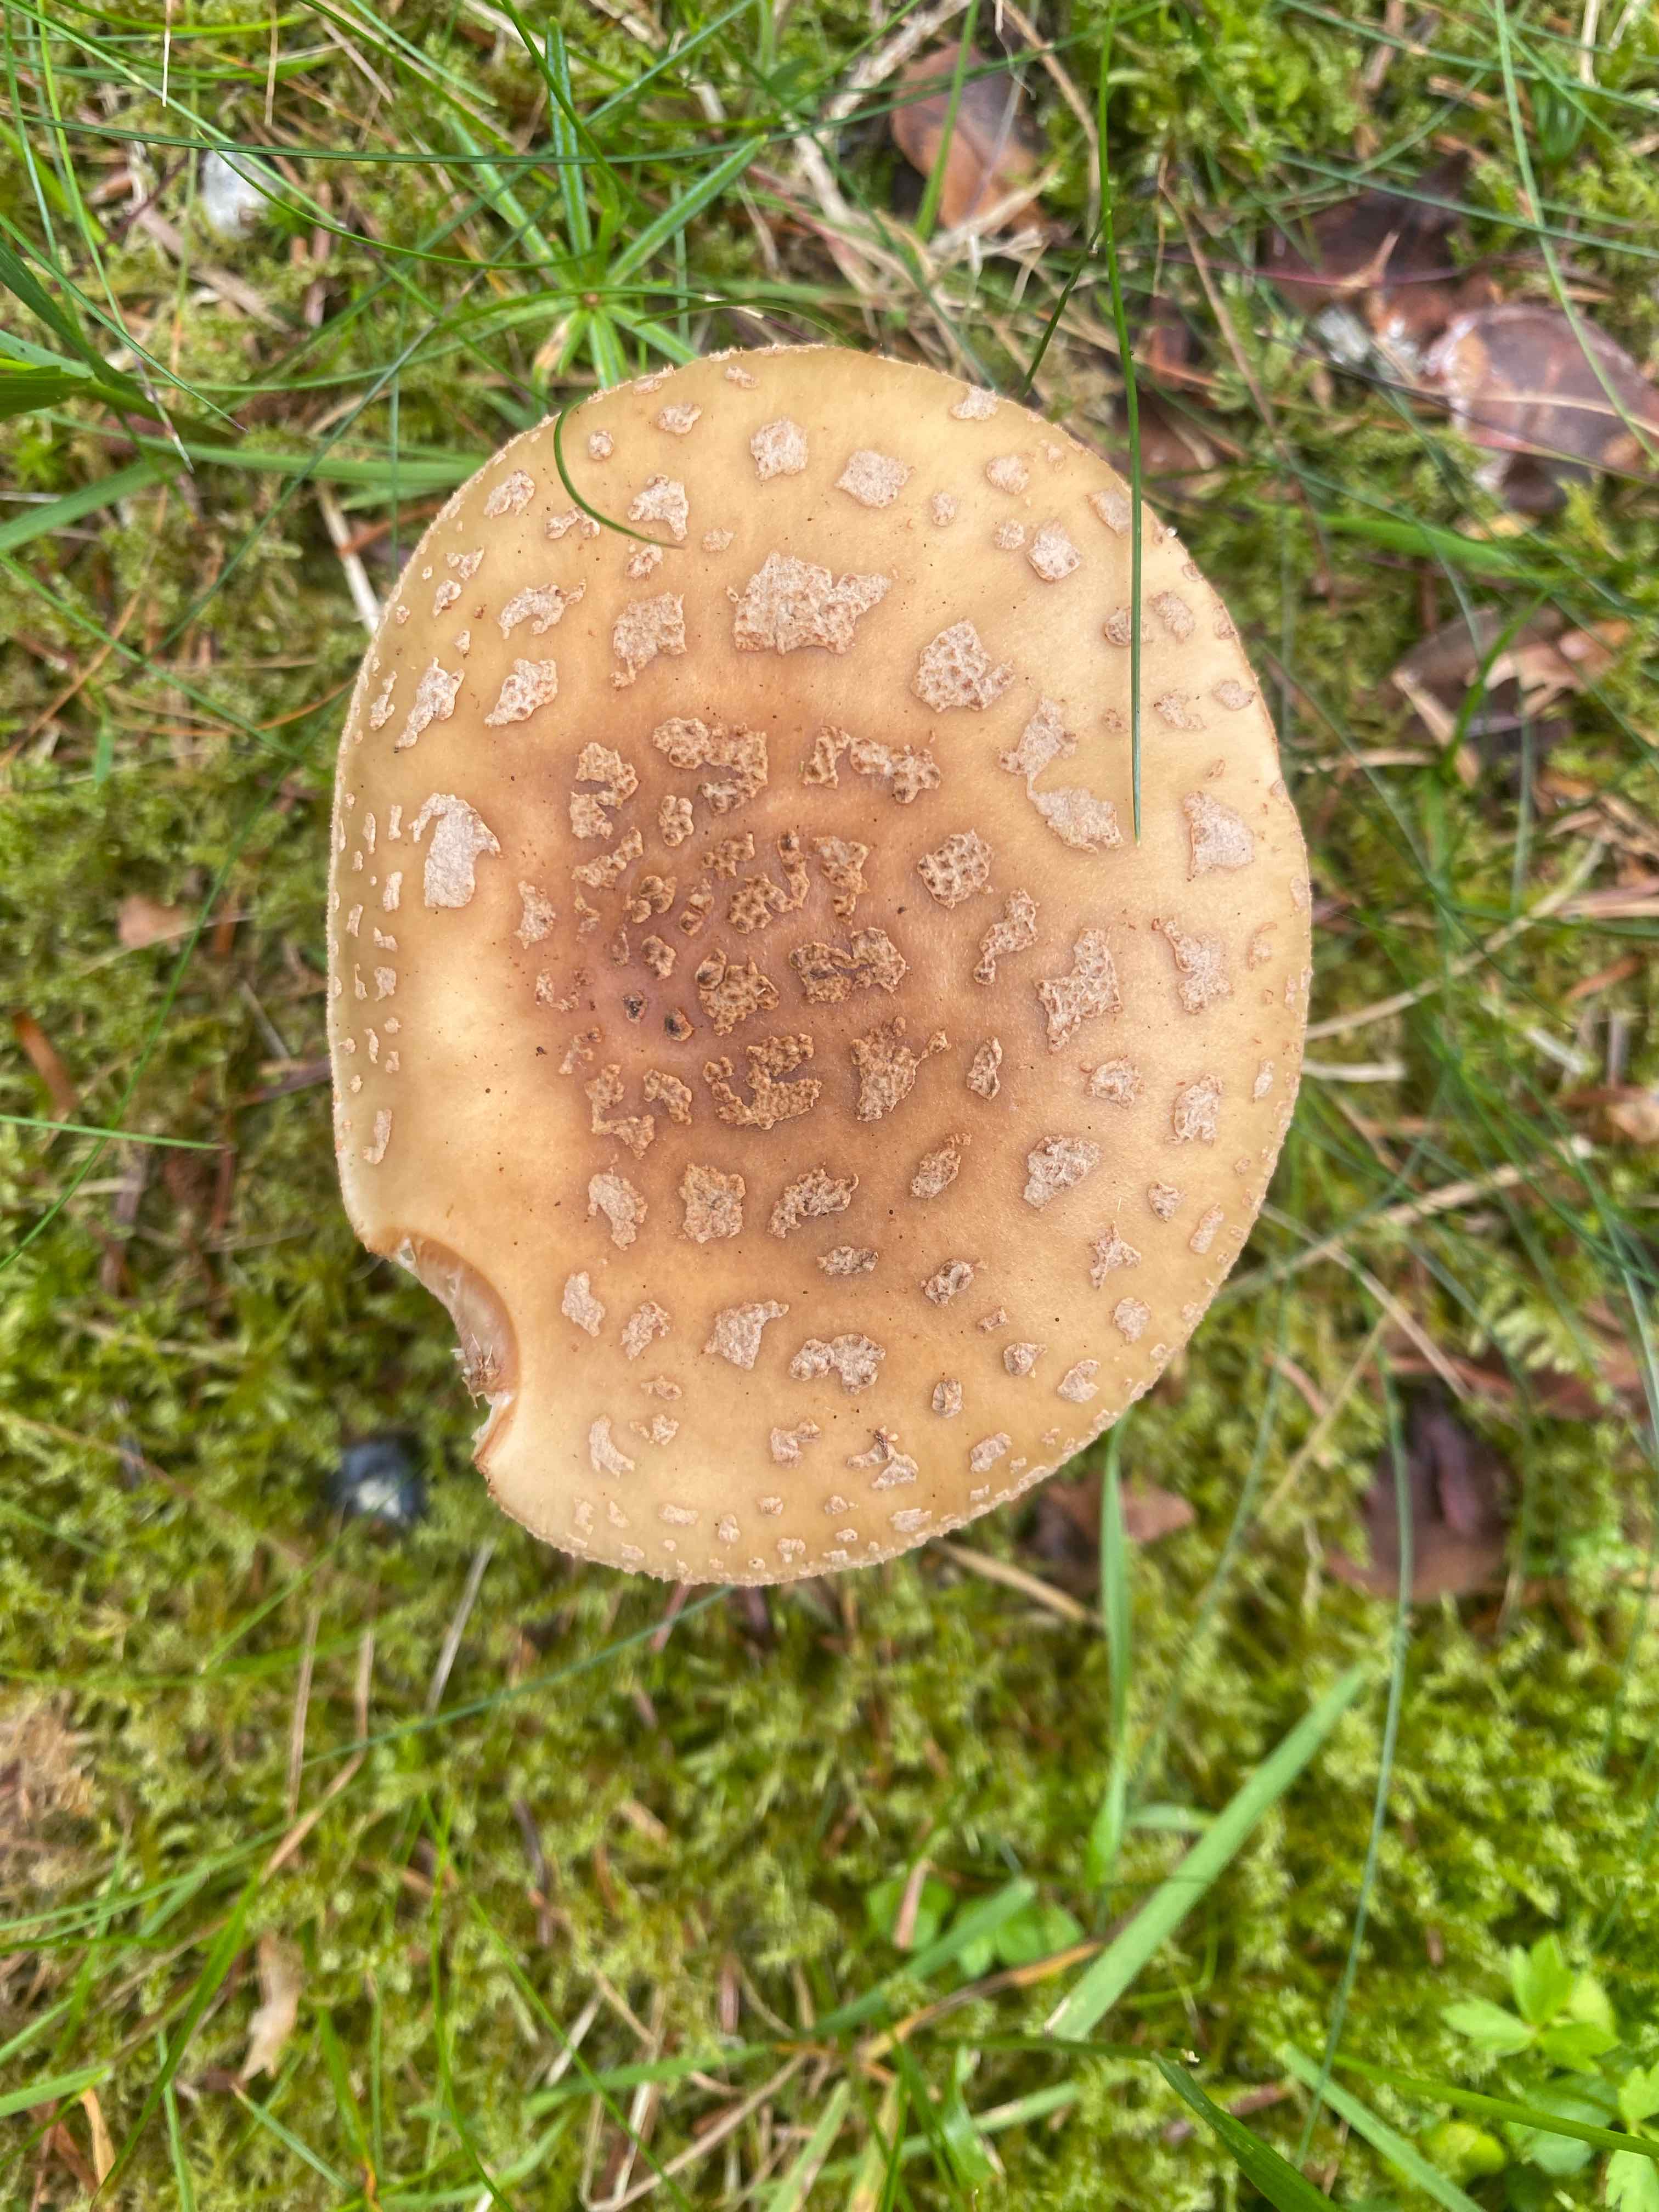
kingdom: Fungi
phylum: Basidiomycota
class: Agaricomycetes
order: Agaricales
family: Amanitaceae
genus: Amanita
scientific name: Amanita rubescens
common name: rødmende fluesvamp
